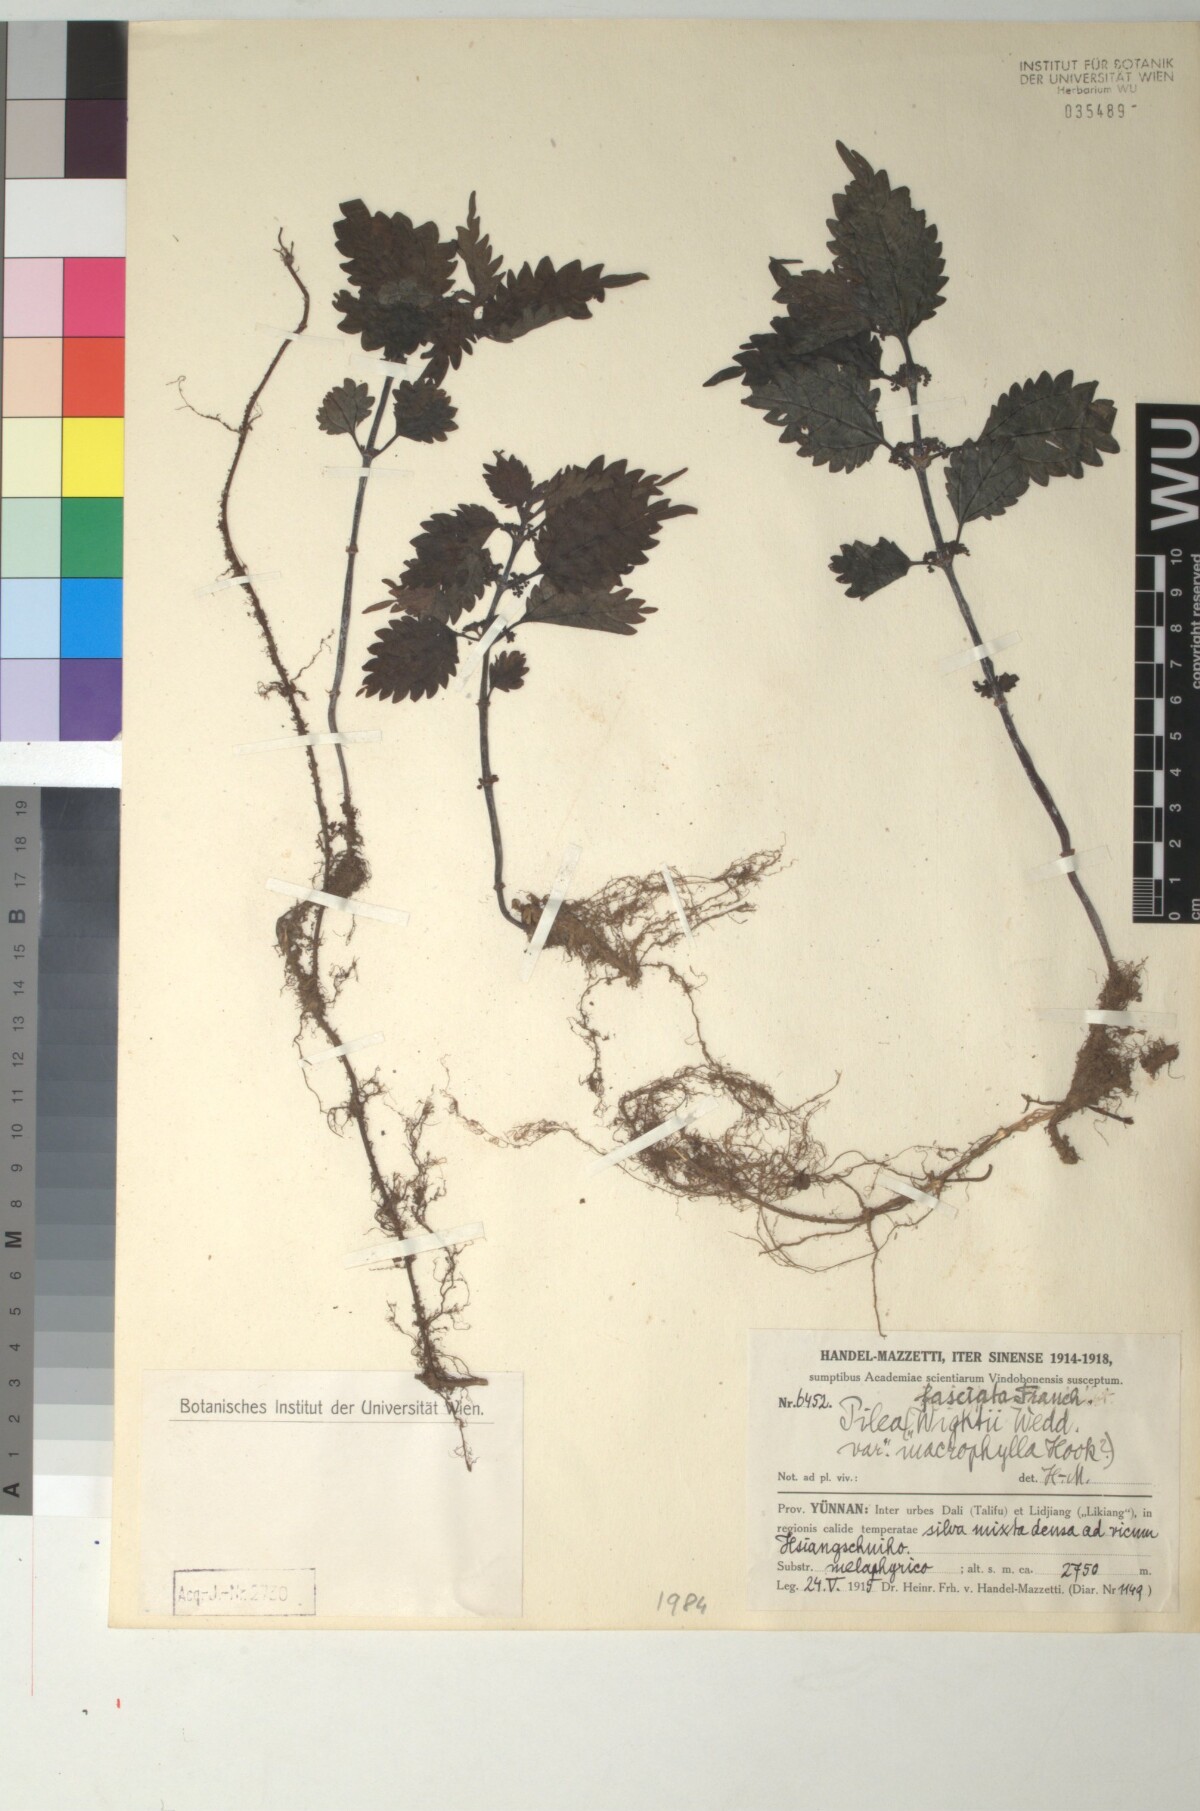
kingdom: Plantae
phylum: Tracheophyta
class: Magnoliopsida
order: Rosales
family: Urticaceae
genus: Pilea
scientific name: Pilea sinofasciata
